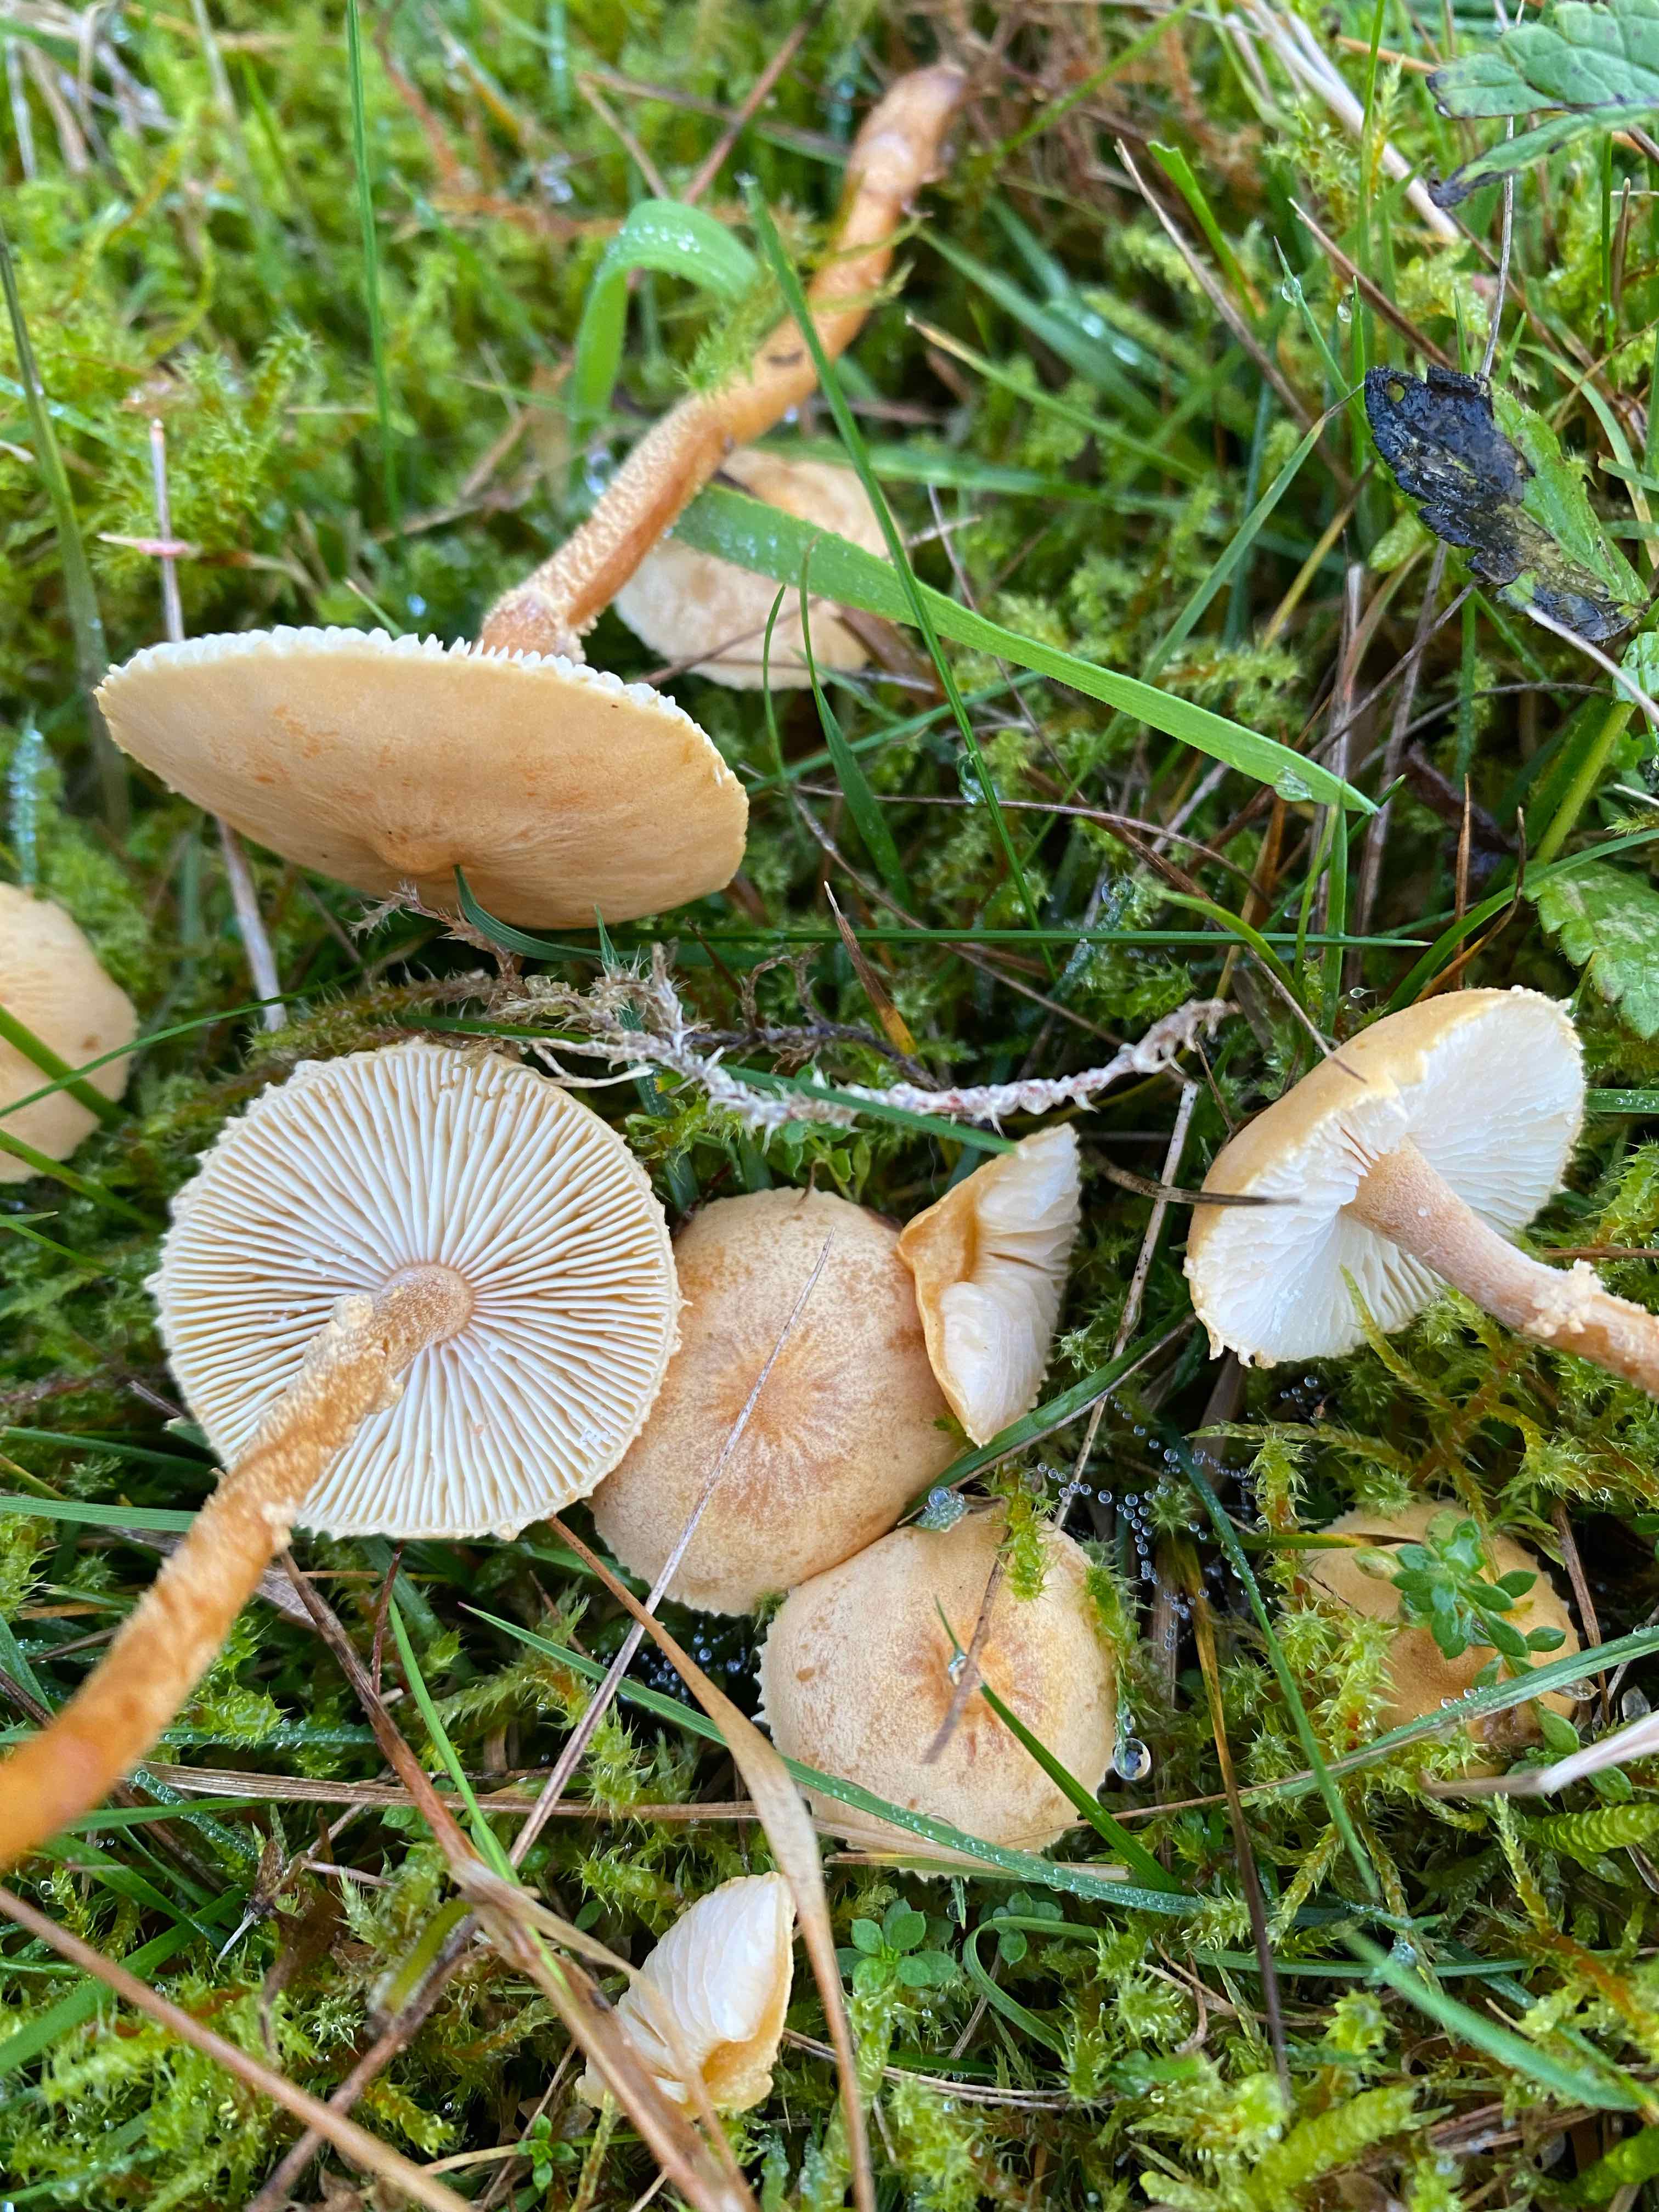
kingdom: Fungi
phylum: Basidiomycota
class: Agaricomycetes
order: Agaricales
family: Tricholomataceae
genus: Cystoderma
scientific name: Cystoderma amianthinum
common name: okkergul grynhat
